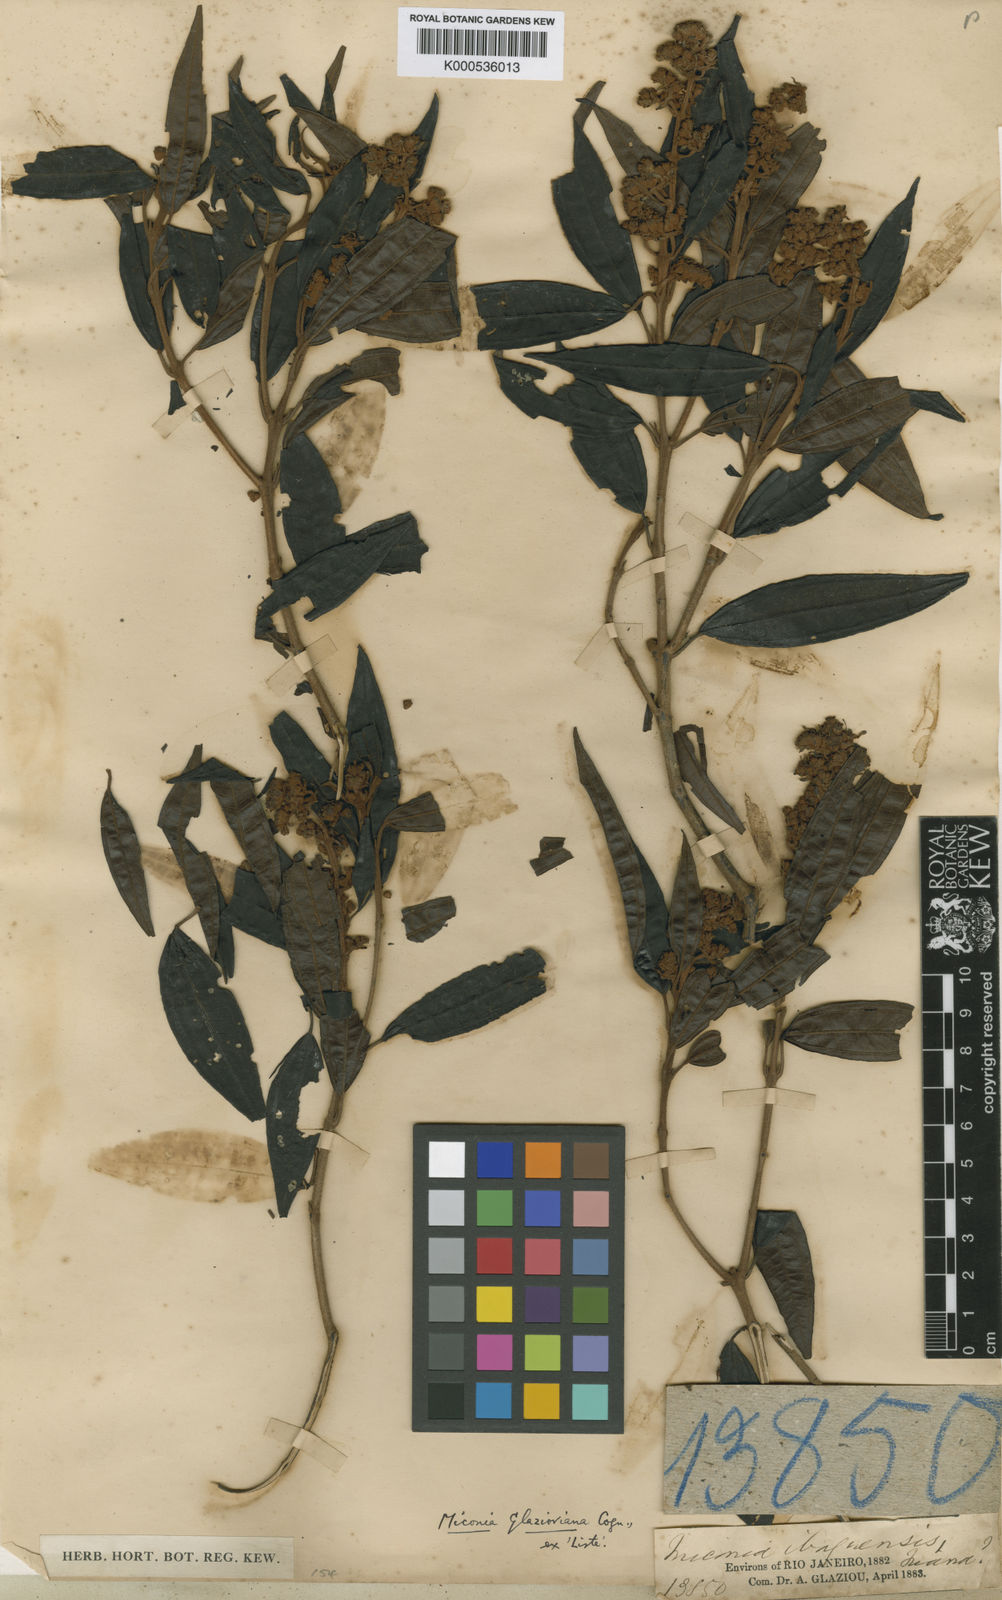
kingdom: Plantae
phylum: Tracheophyta
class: Magnoliopsida
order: Myrtales
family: Melastomataceae
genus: Miconia
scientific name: Miconia glazioviana
